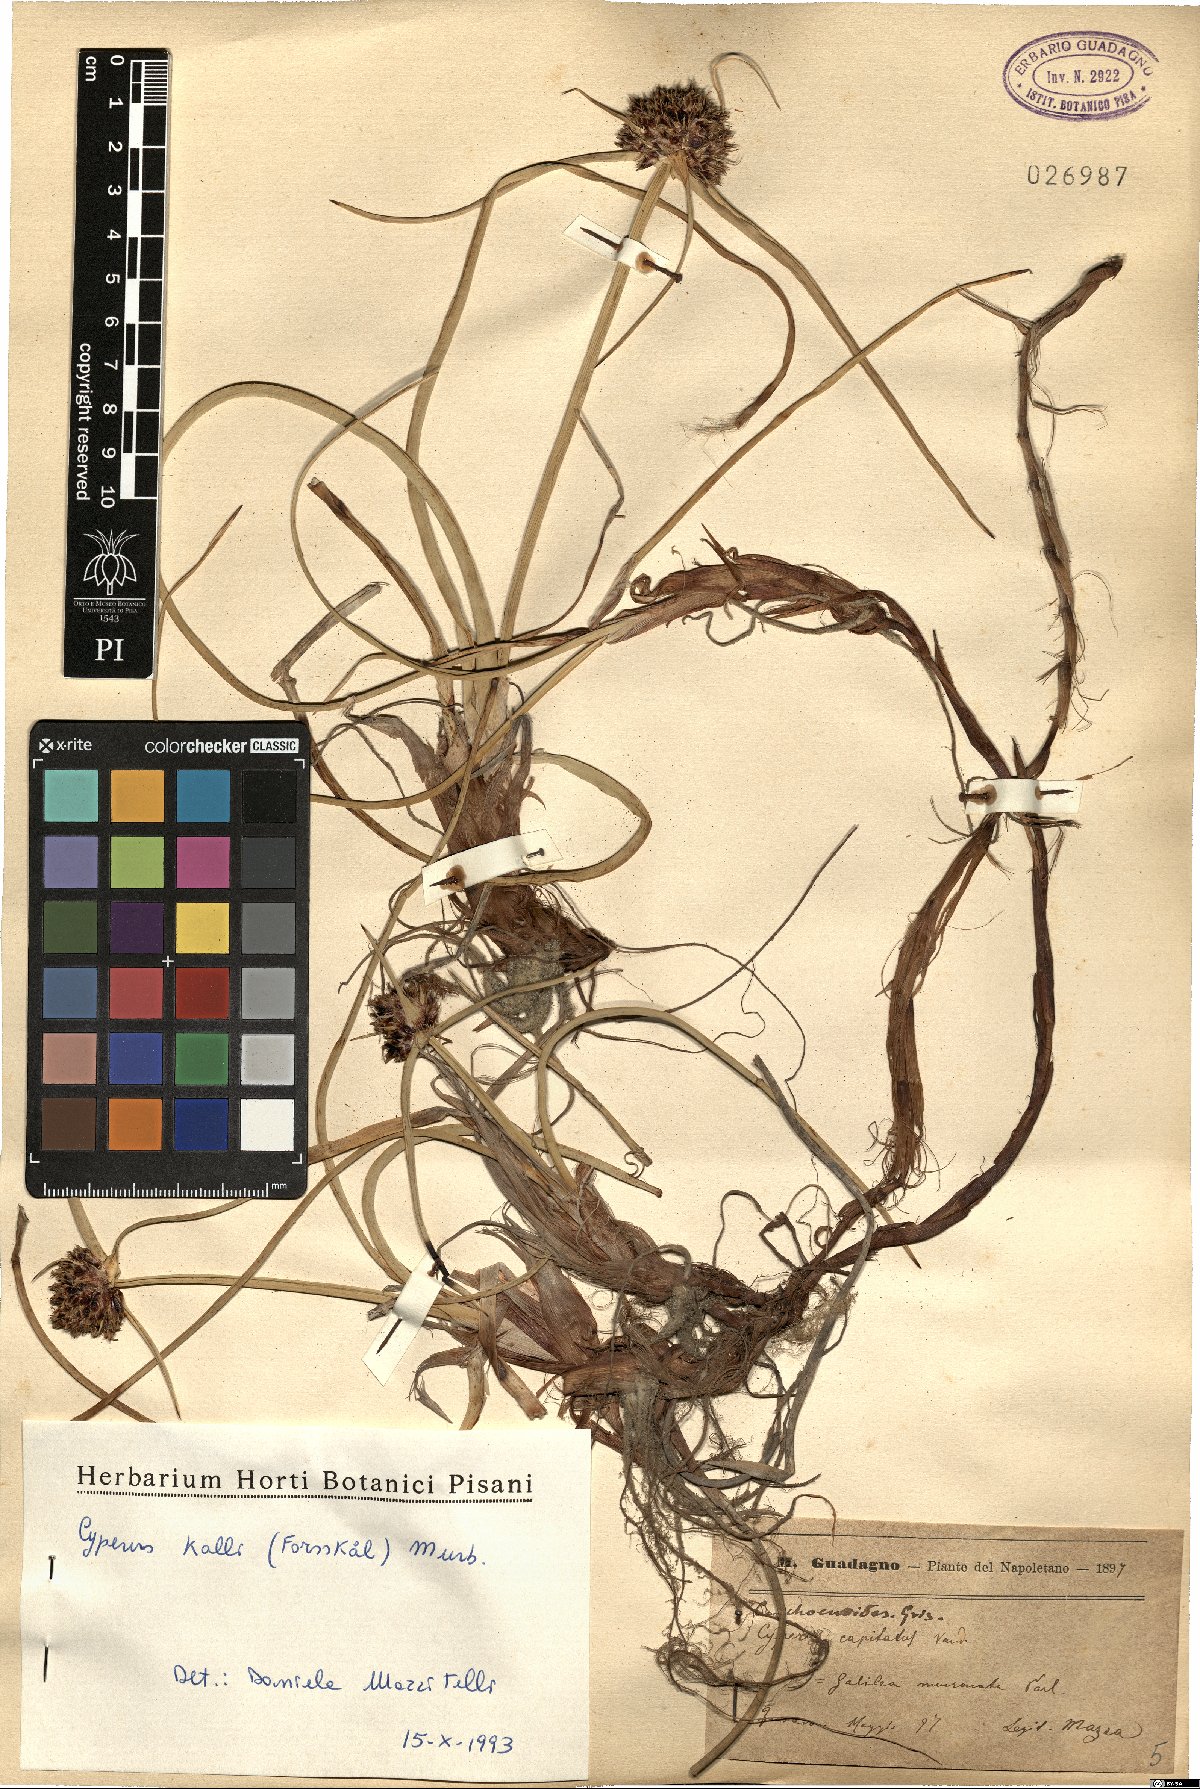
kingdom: Plantae
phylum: Tracheophyta
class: Liliopsida
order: Poales
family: Cyperaceae
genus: Cyperus
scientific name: Cyperus capitatus
